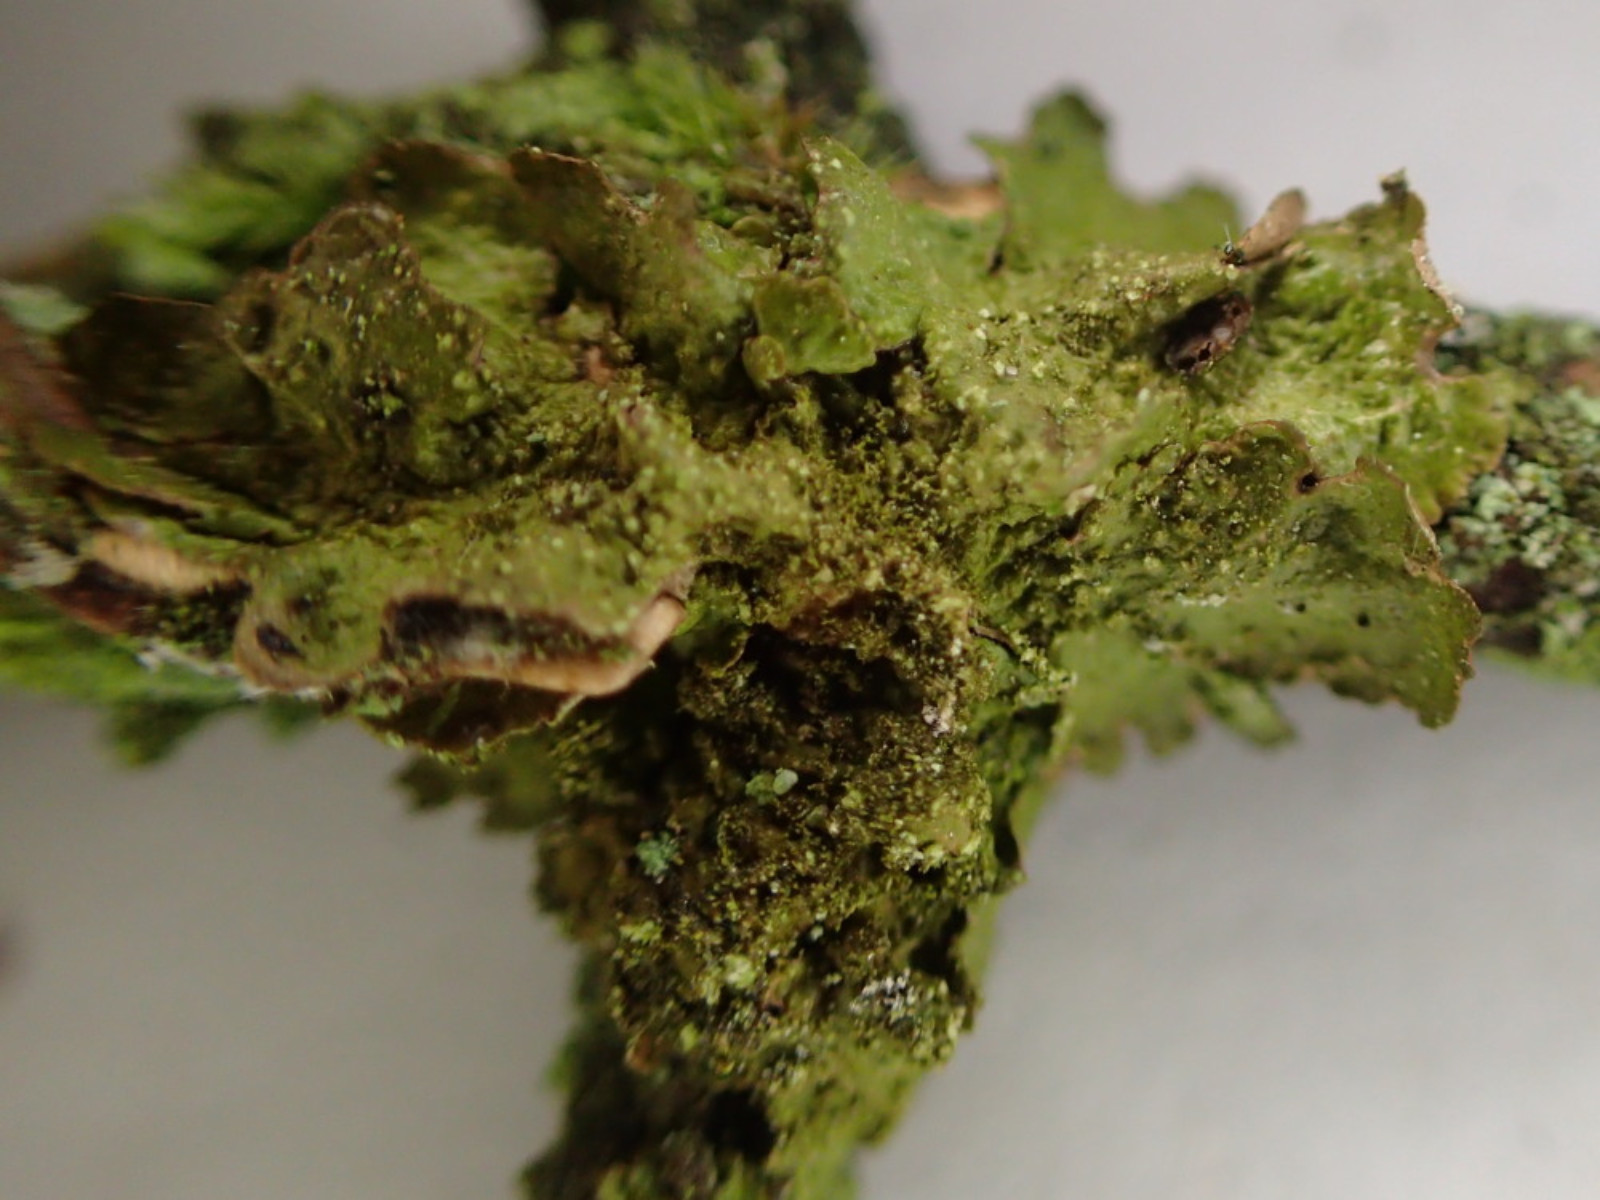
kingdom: Fungi
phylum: Ascomycota
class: Lecanoromycetes
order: Lecanorales
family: Parmeliaceae
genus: Melanelixia
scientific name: Melanelixia subaurifera
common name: guldpudret skållav
